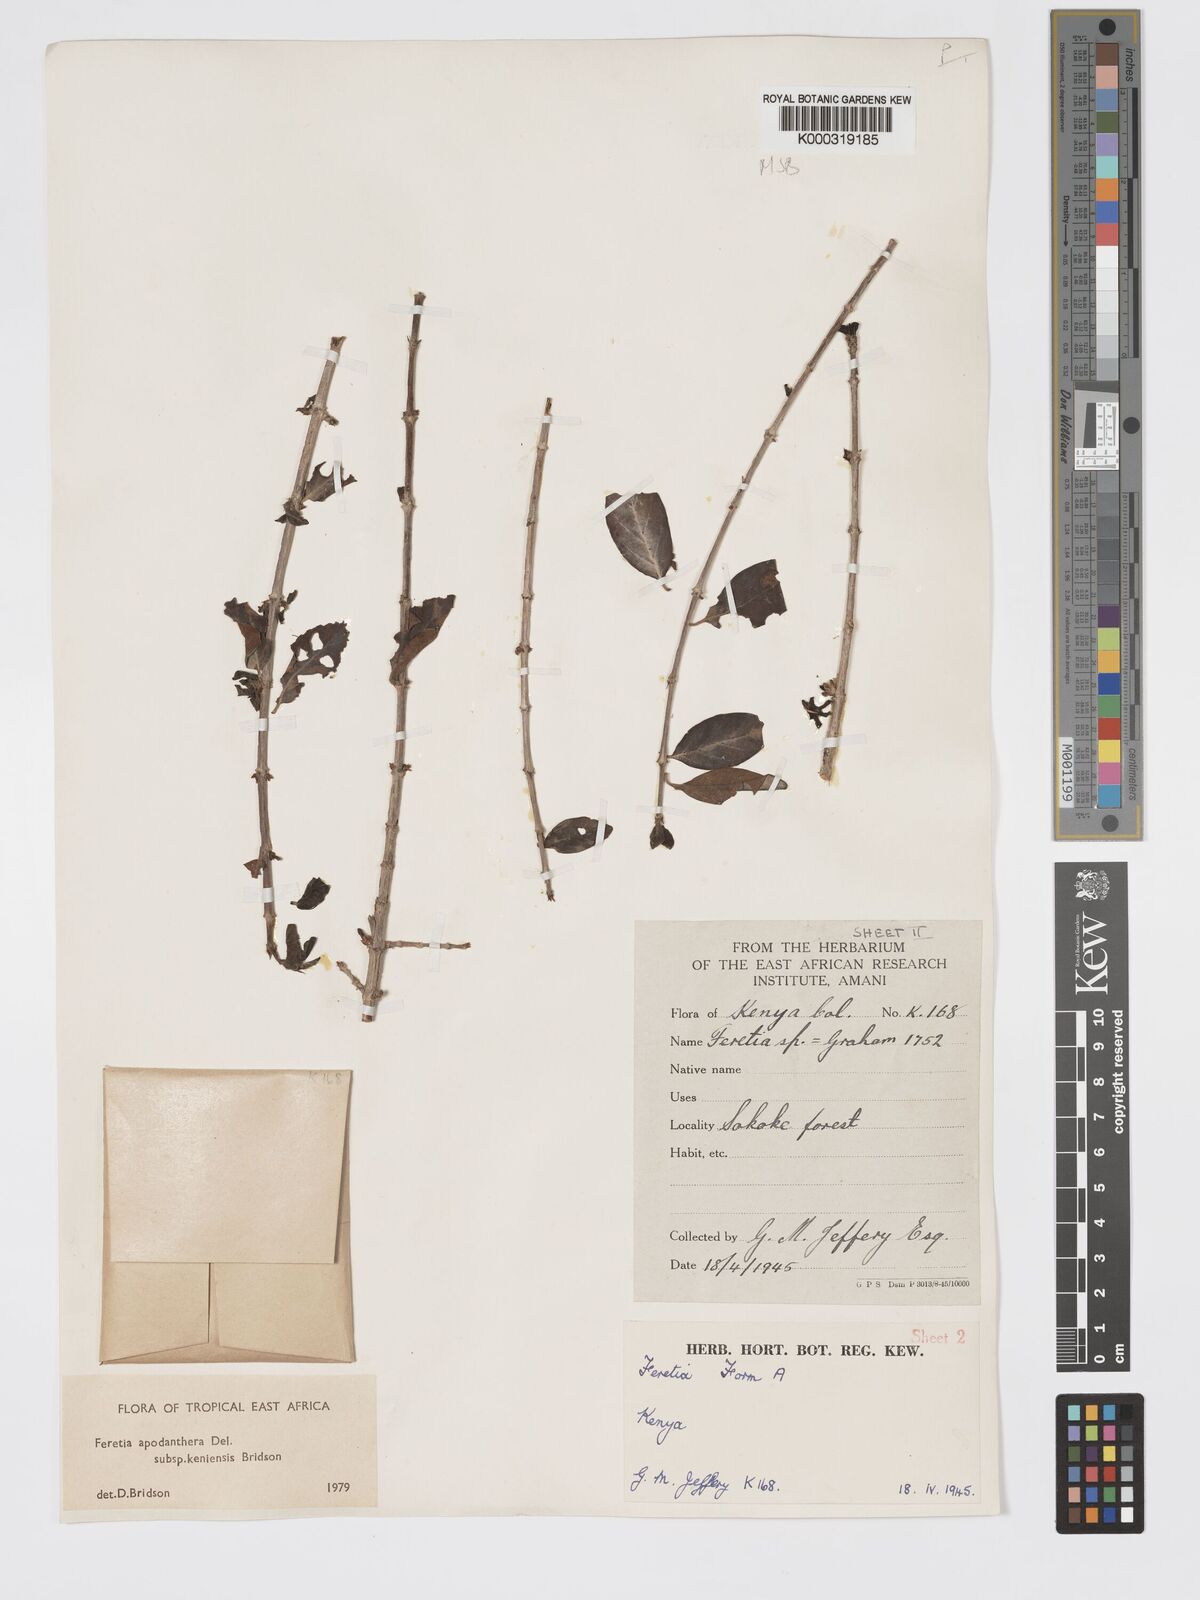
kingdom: Plantae
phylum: Tracheophyta
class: Magnoliopsida
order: Gentianales
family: Rubiaceae
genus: Feretia
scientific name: Feretia apodanthera
